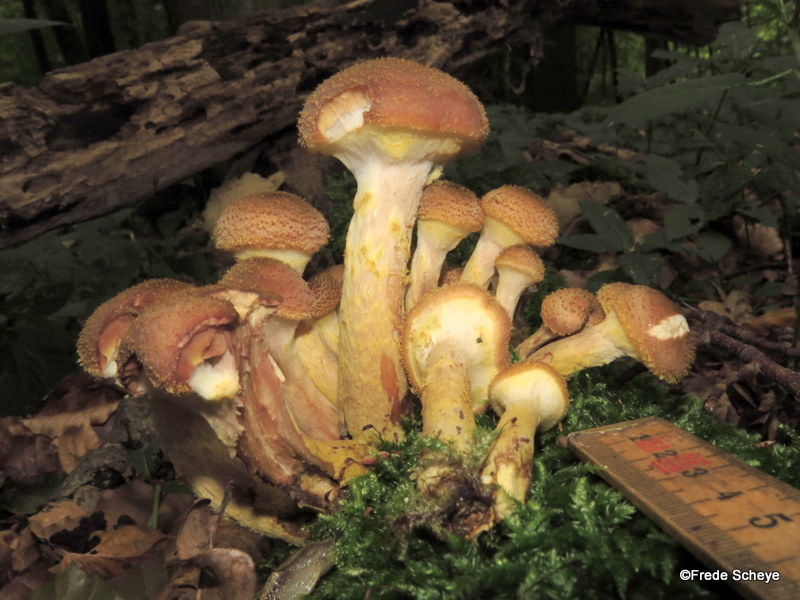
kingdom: Fungi
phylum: Basidiomycota
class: Agaricomycetes
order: Agaricales
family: Physalacriaceae
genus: Armillaria
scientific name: Armillaria lutea
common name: køllestokket honningsvamp
